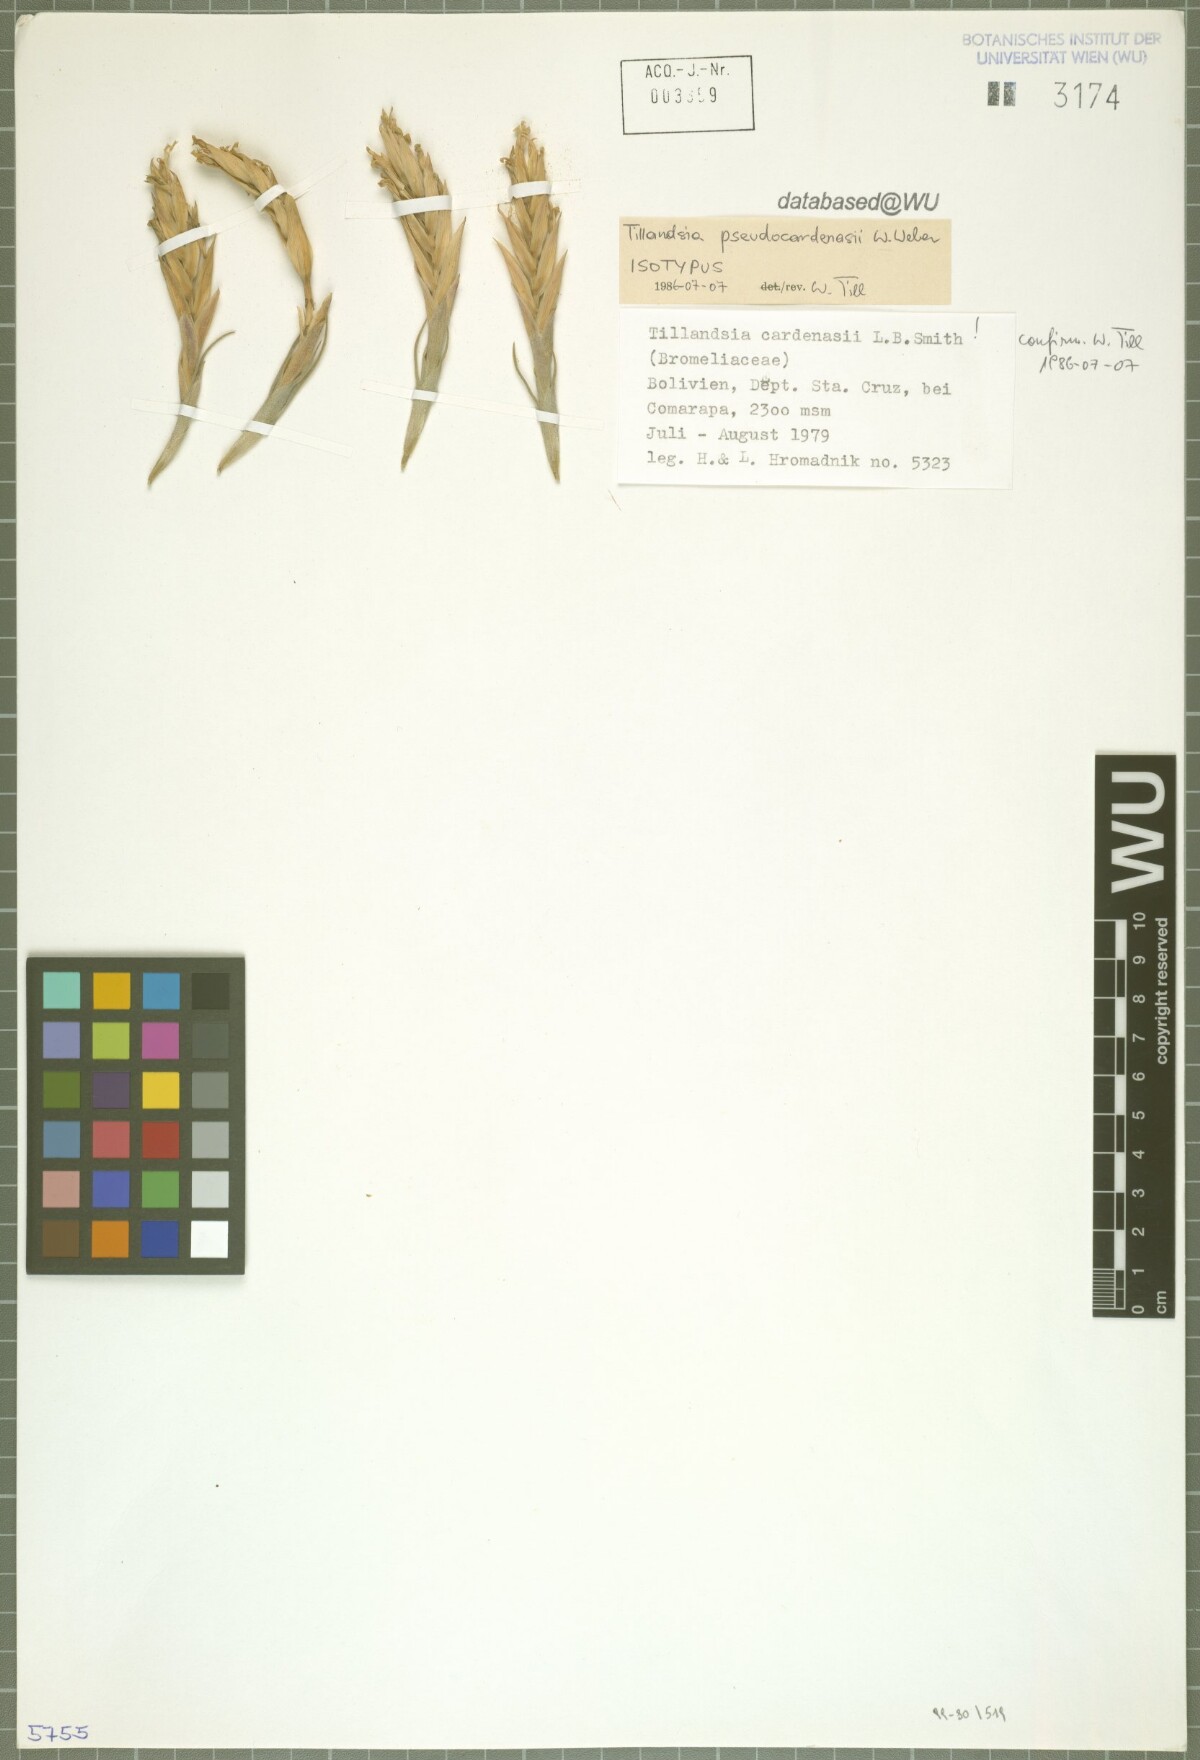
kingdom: Plantae
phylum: Tracheophyta
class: Liliopsida
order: Poales
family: Bromeliaceae
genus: Tillandsia
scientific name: Tillandsia pseudocardenasii
